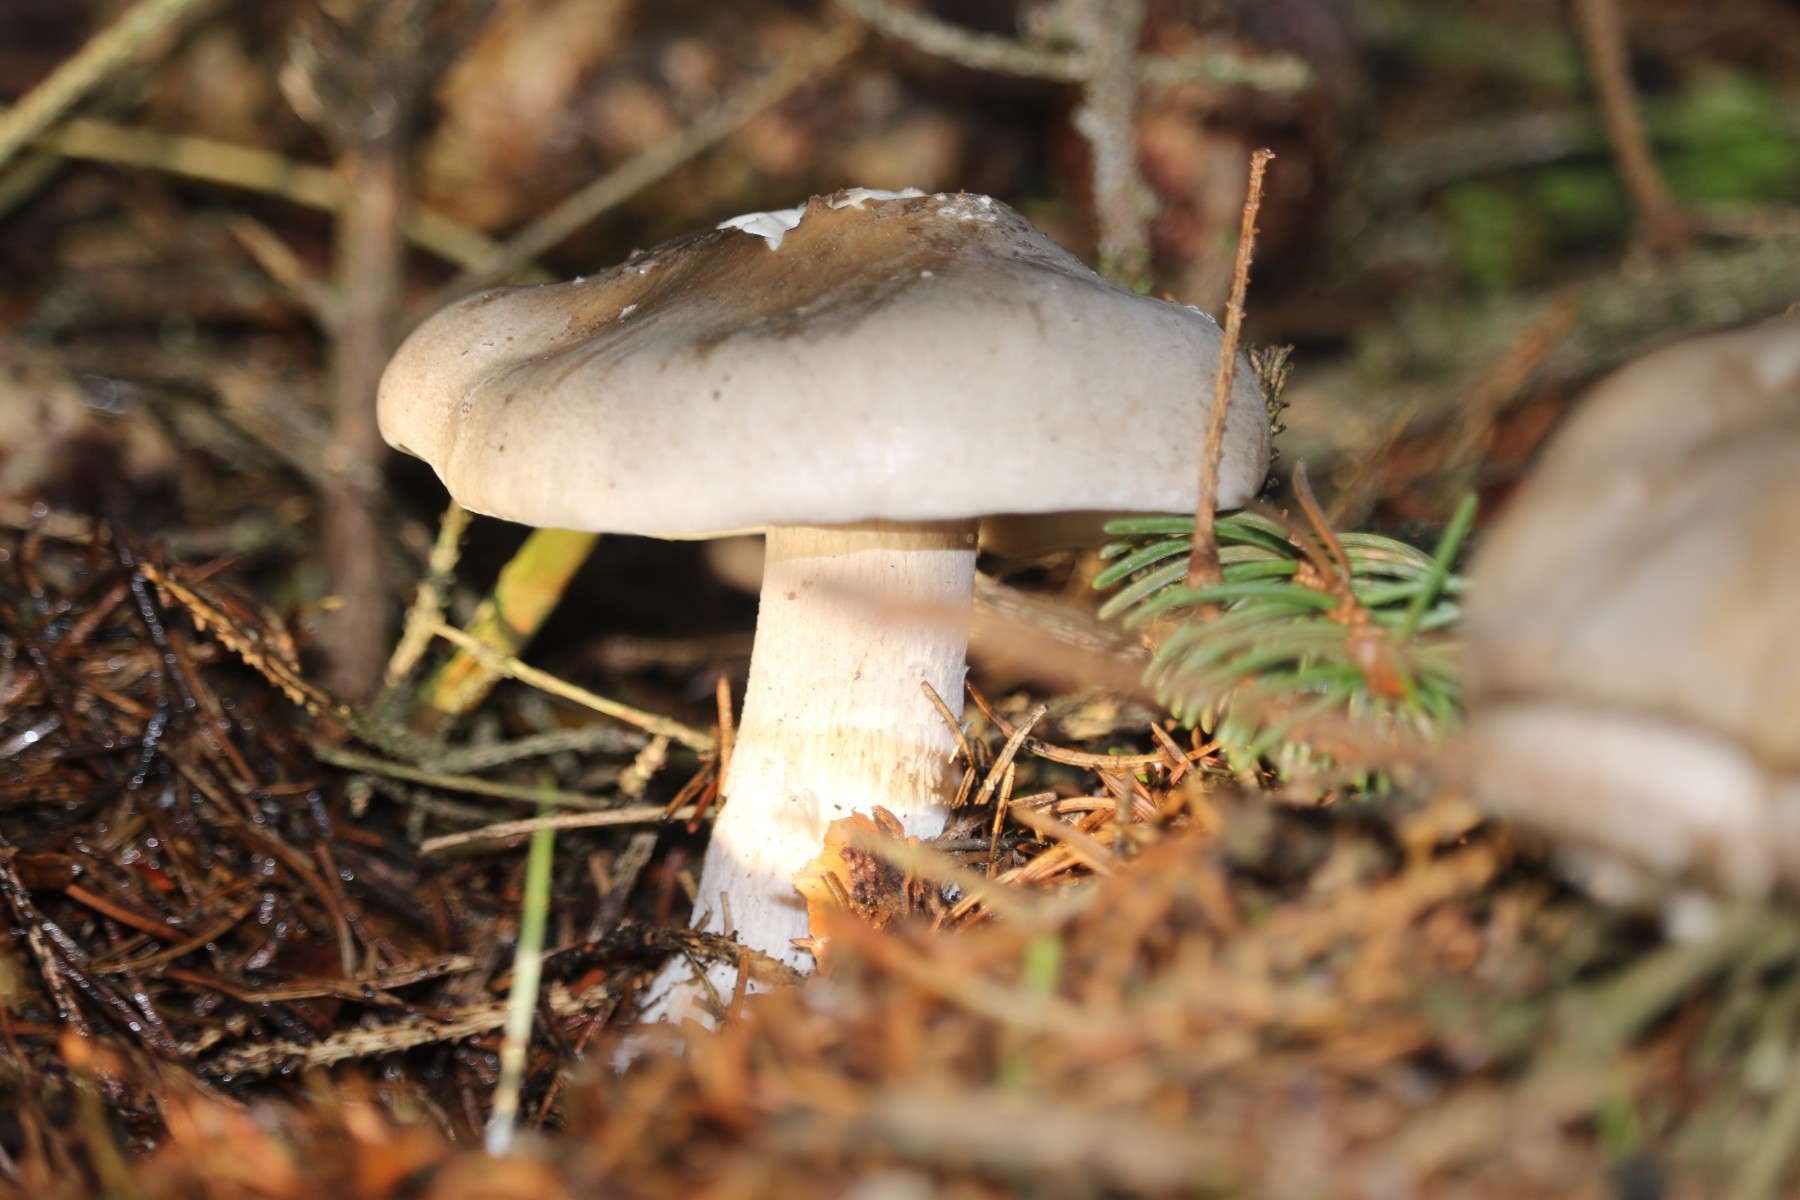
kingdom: Fungi
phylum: Basidiomycota
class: Agaricomycetes
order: Agaricales
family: Tricholomataceae
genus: Clitocybe
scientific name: Clitocybe nebularis
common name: tåge-tragthat
